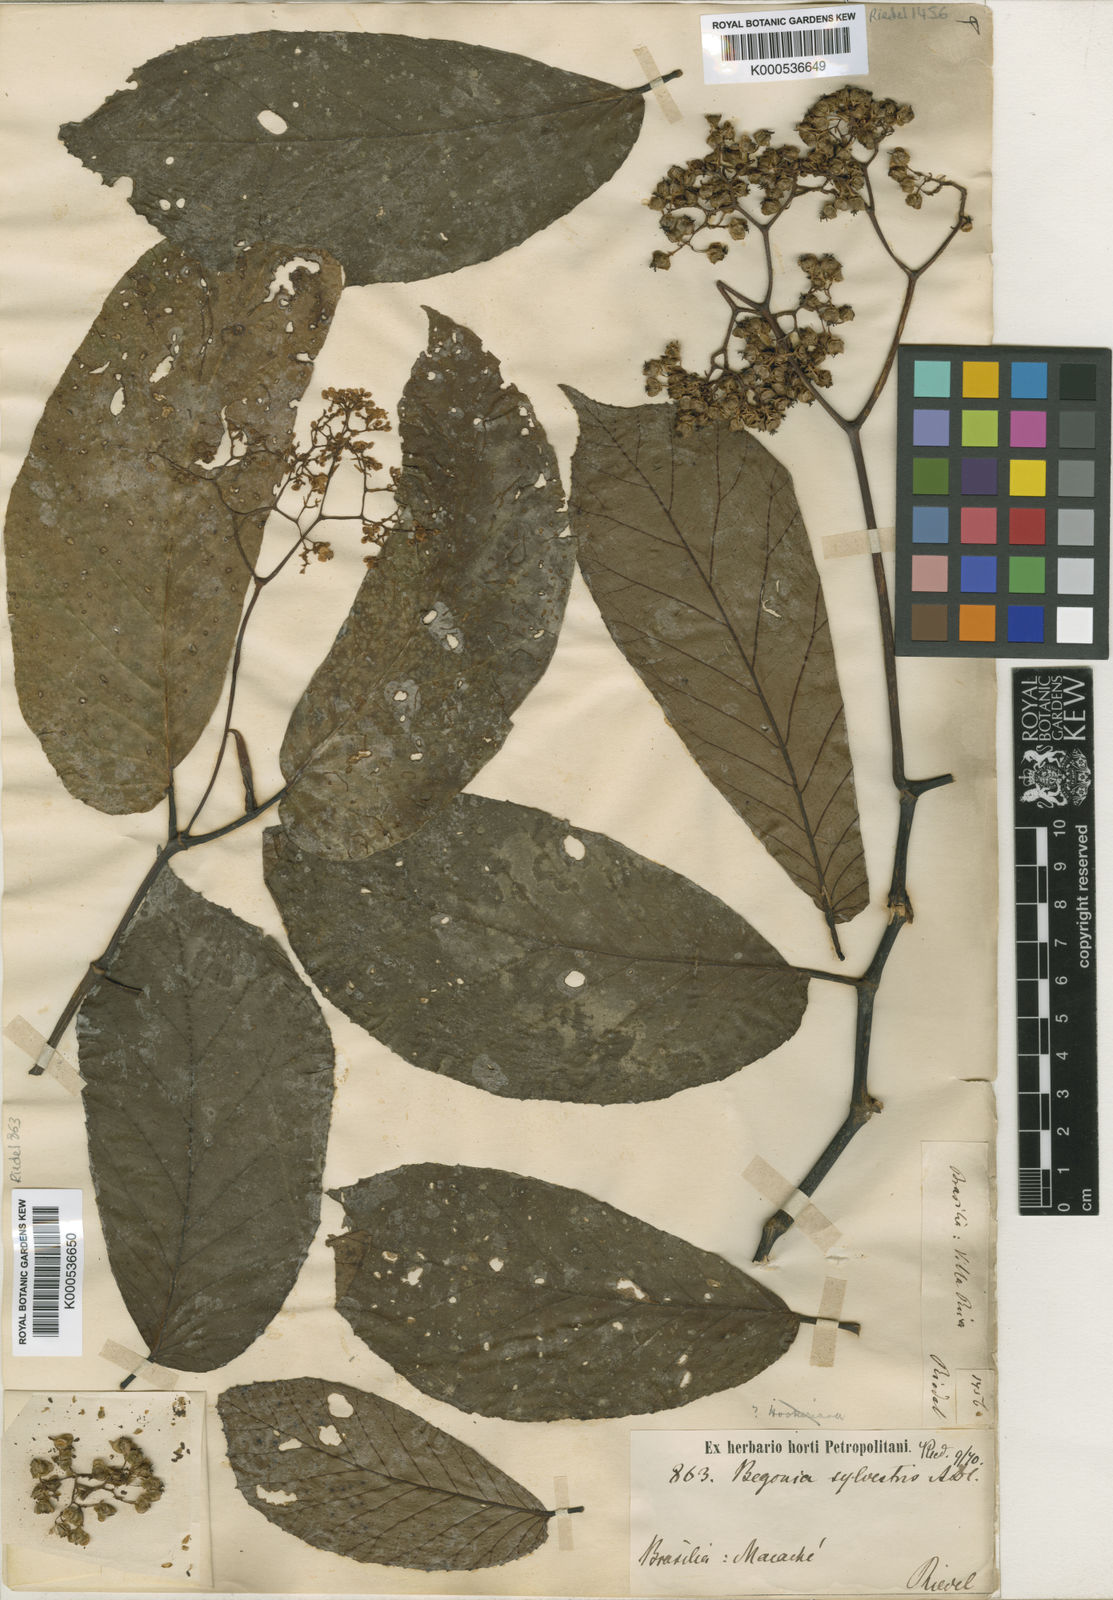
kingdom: Plantae
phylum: Tracheophyta
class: Magnoliopsida
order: Cucurbitales
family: Begoniaceae
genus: Begonia
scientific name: Begonia arborescens
